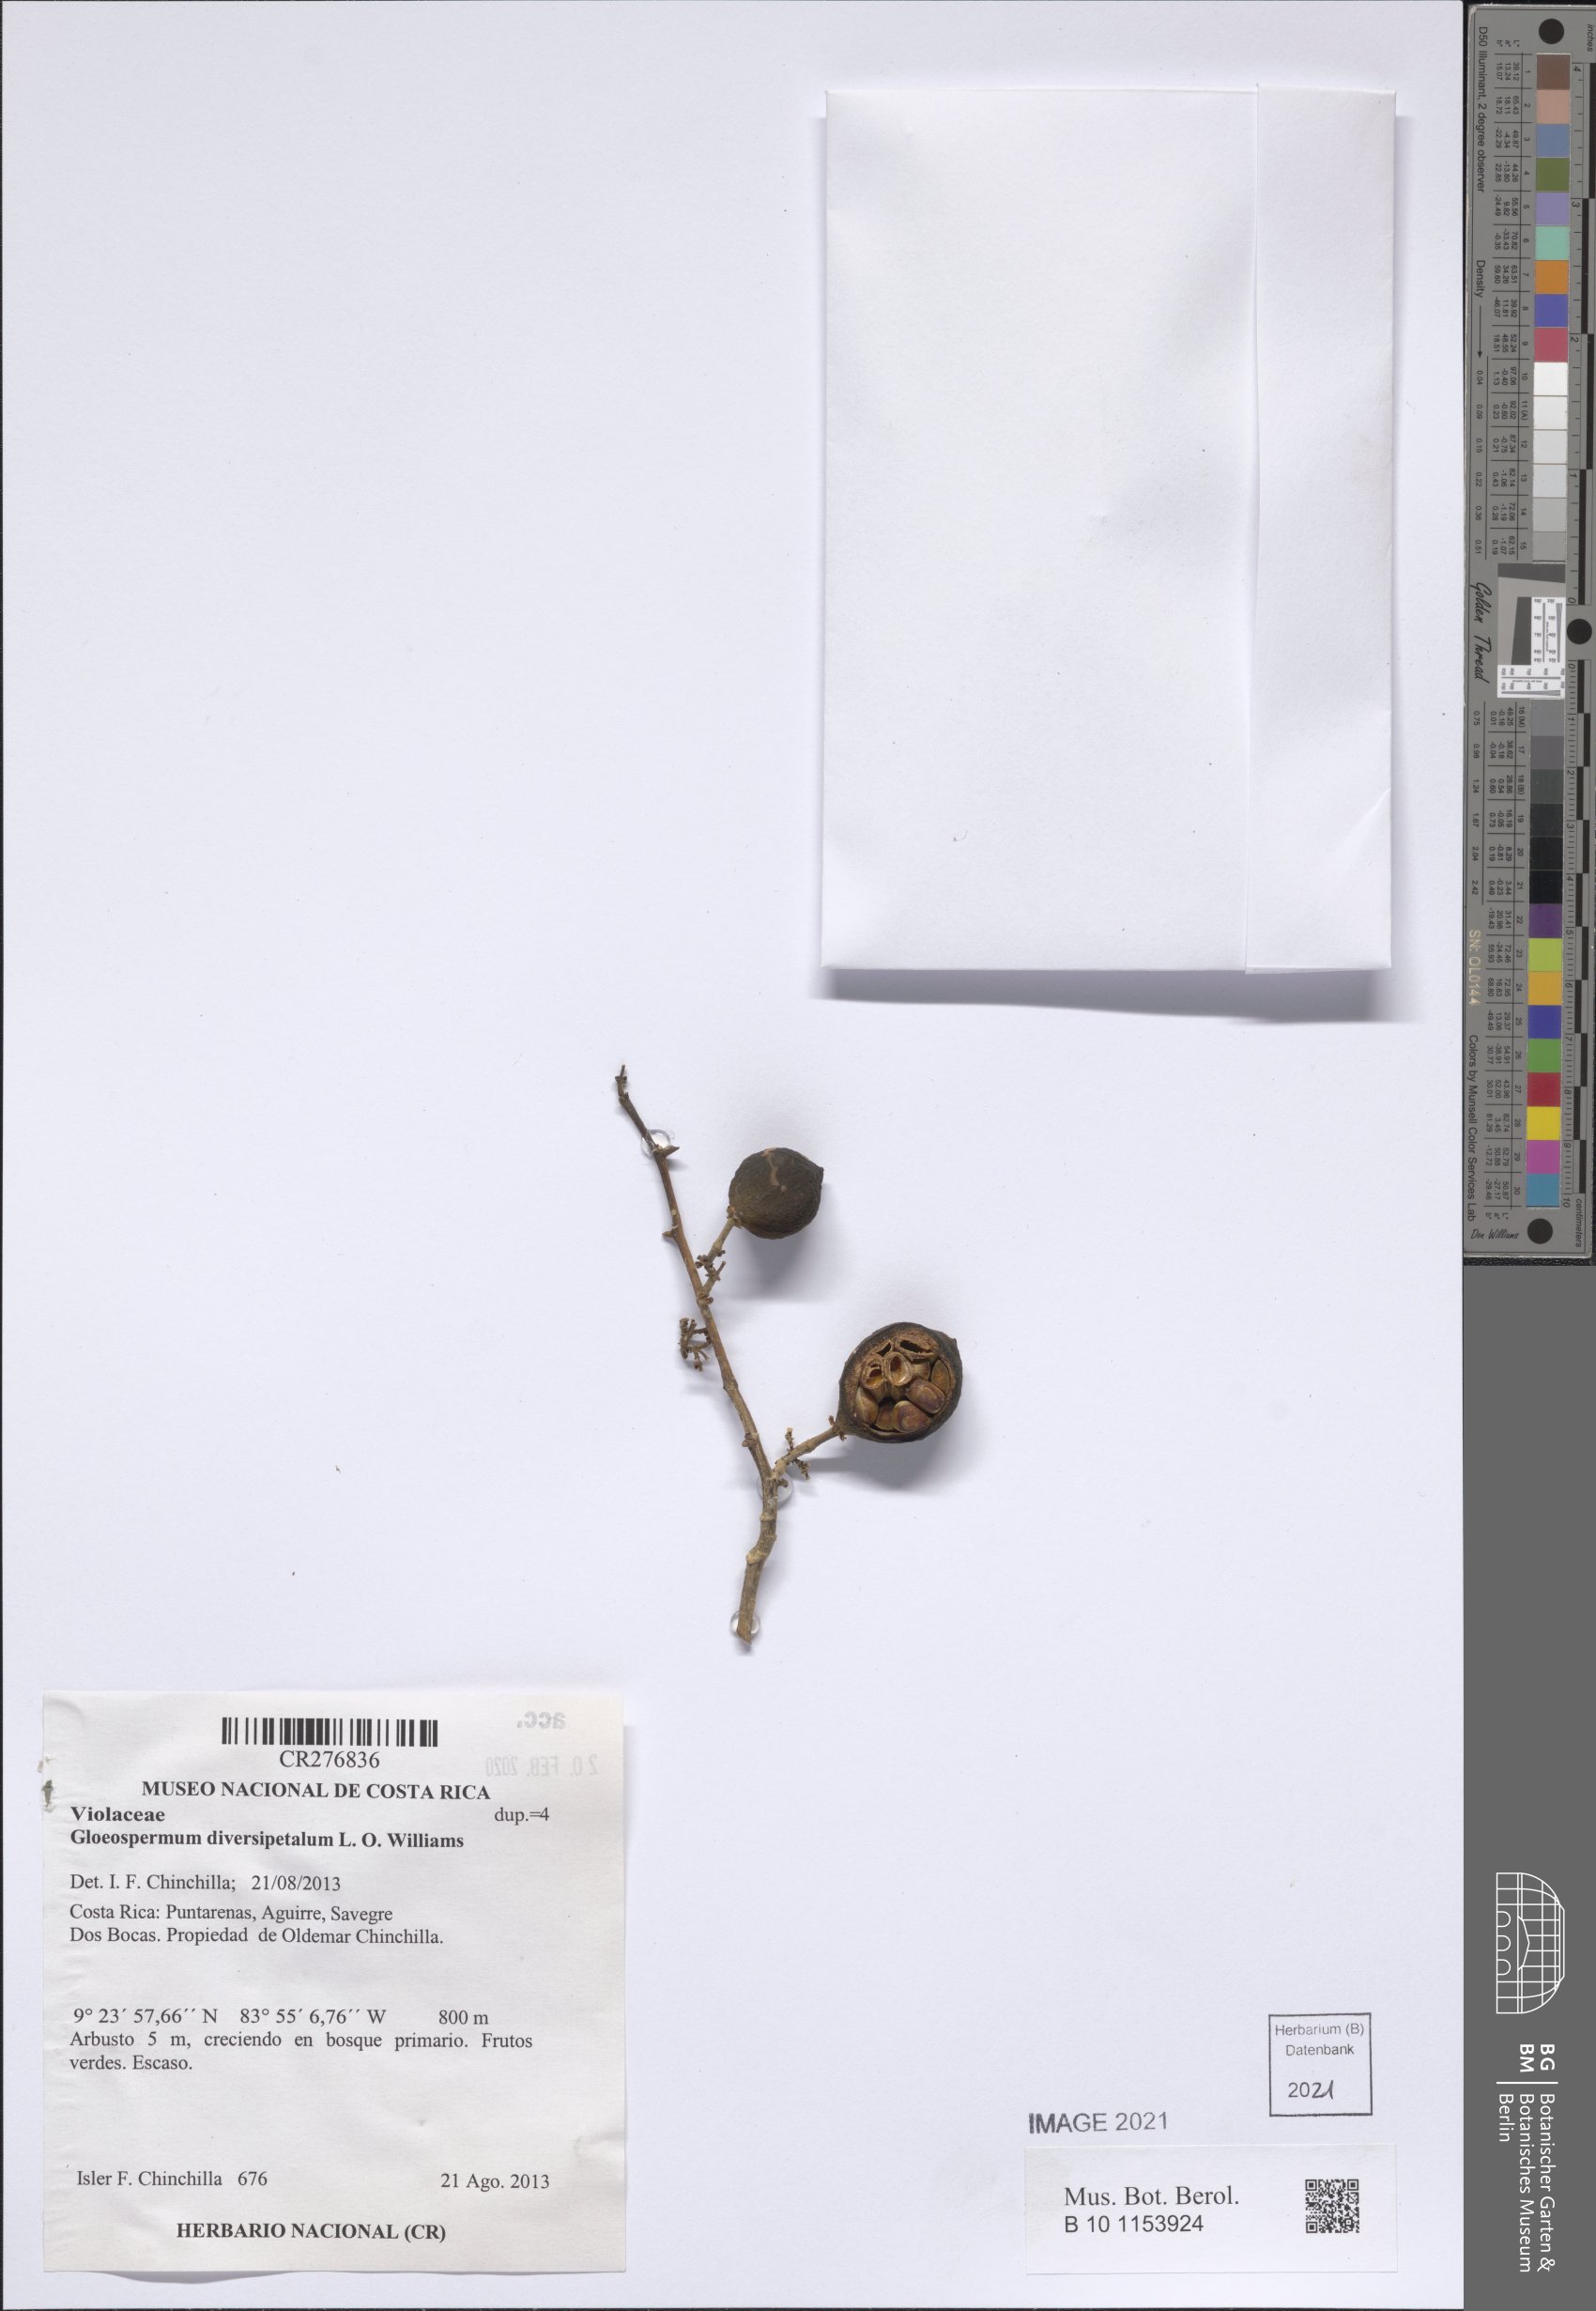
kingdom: Plantae
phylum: Tracheophyta
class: Magnoliopsida
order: Malpighiales
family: Violaceae
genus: Gloeospermum
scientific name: Gloeospermum boreale
